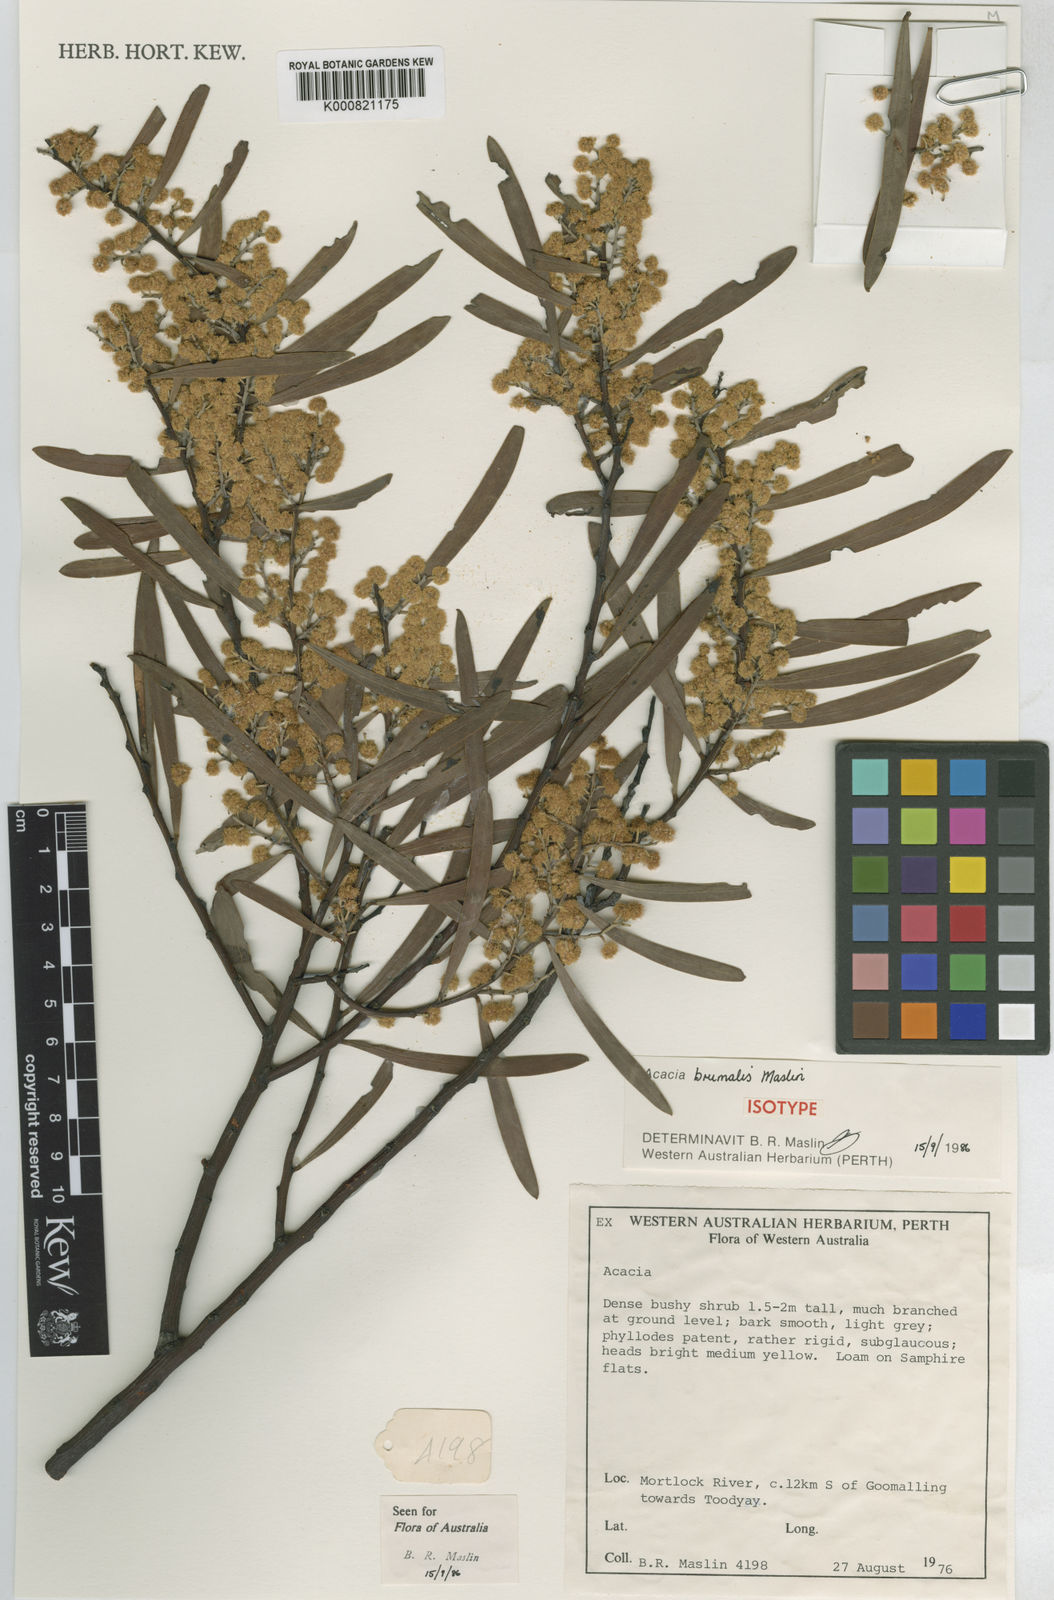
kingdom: Plantae
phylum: Tracheophyta
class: Magnoliopsida
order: Fabales
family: Fabaceae
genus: Acacia
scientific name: Acacia brumalis
